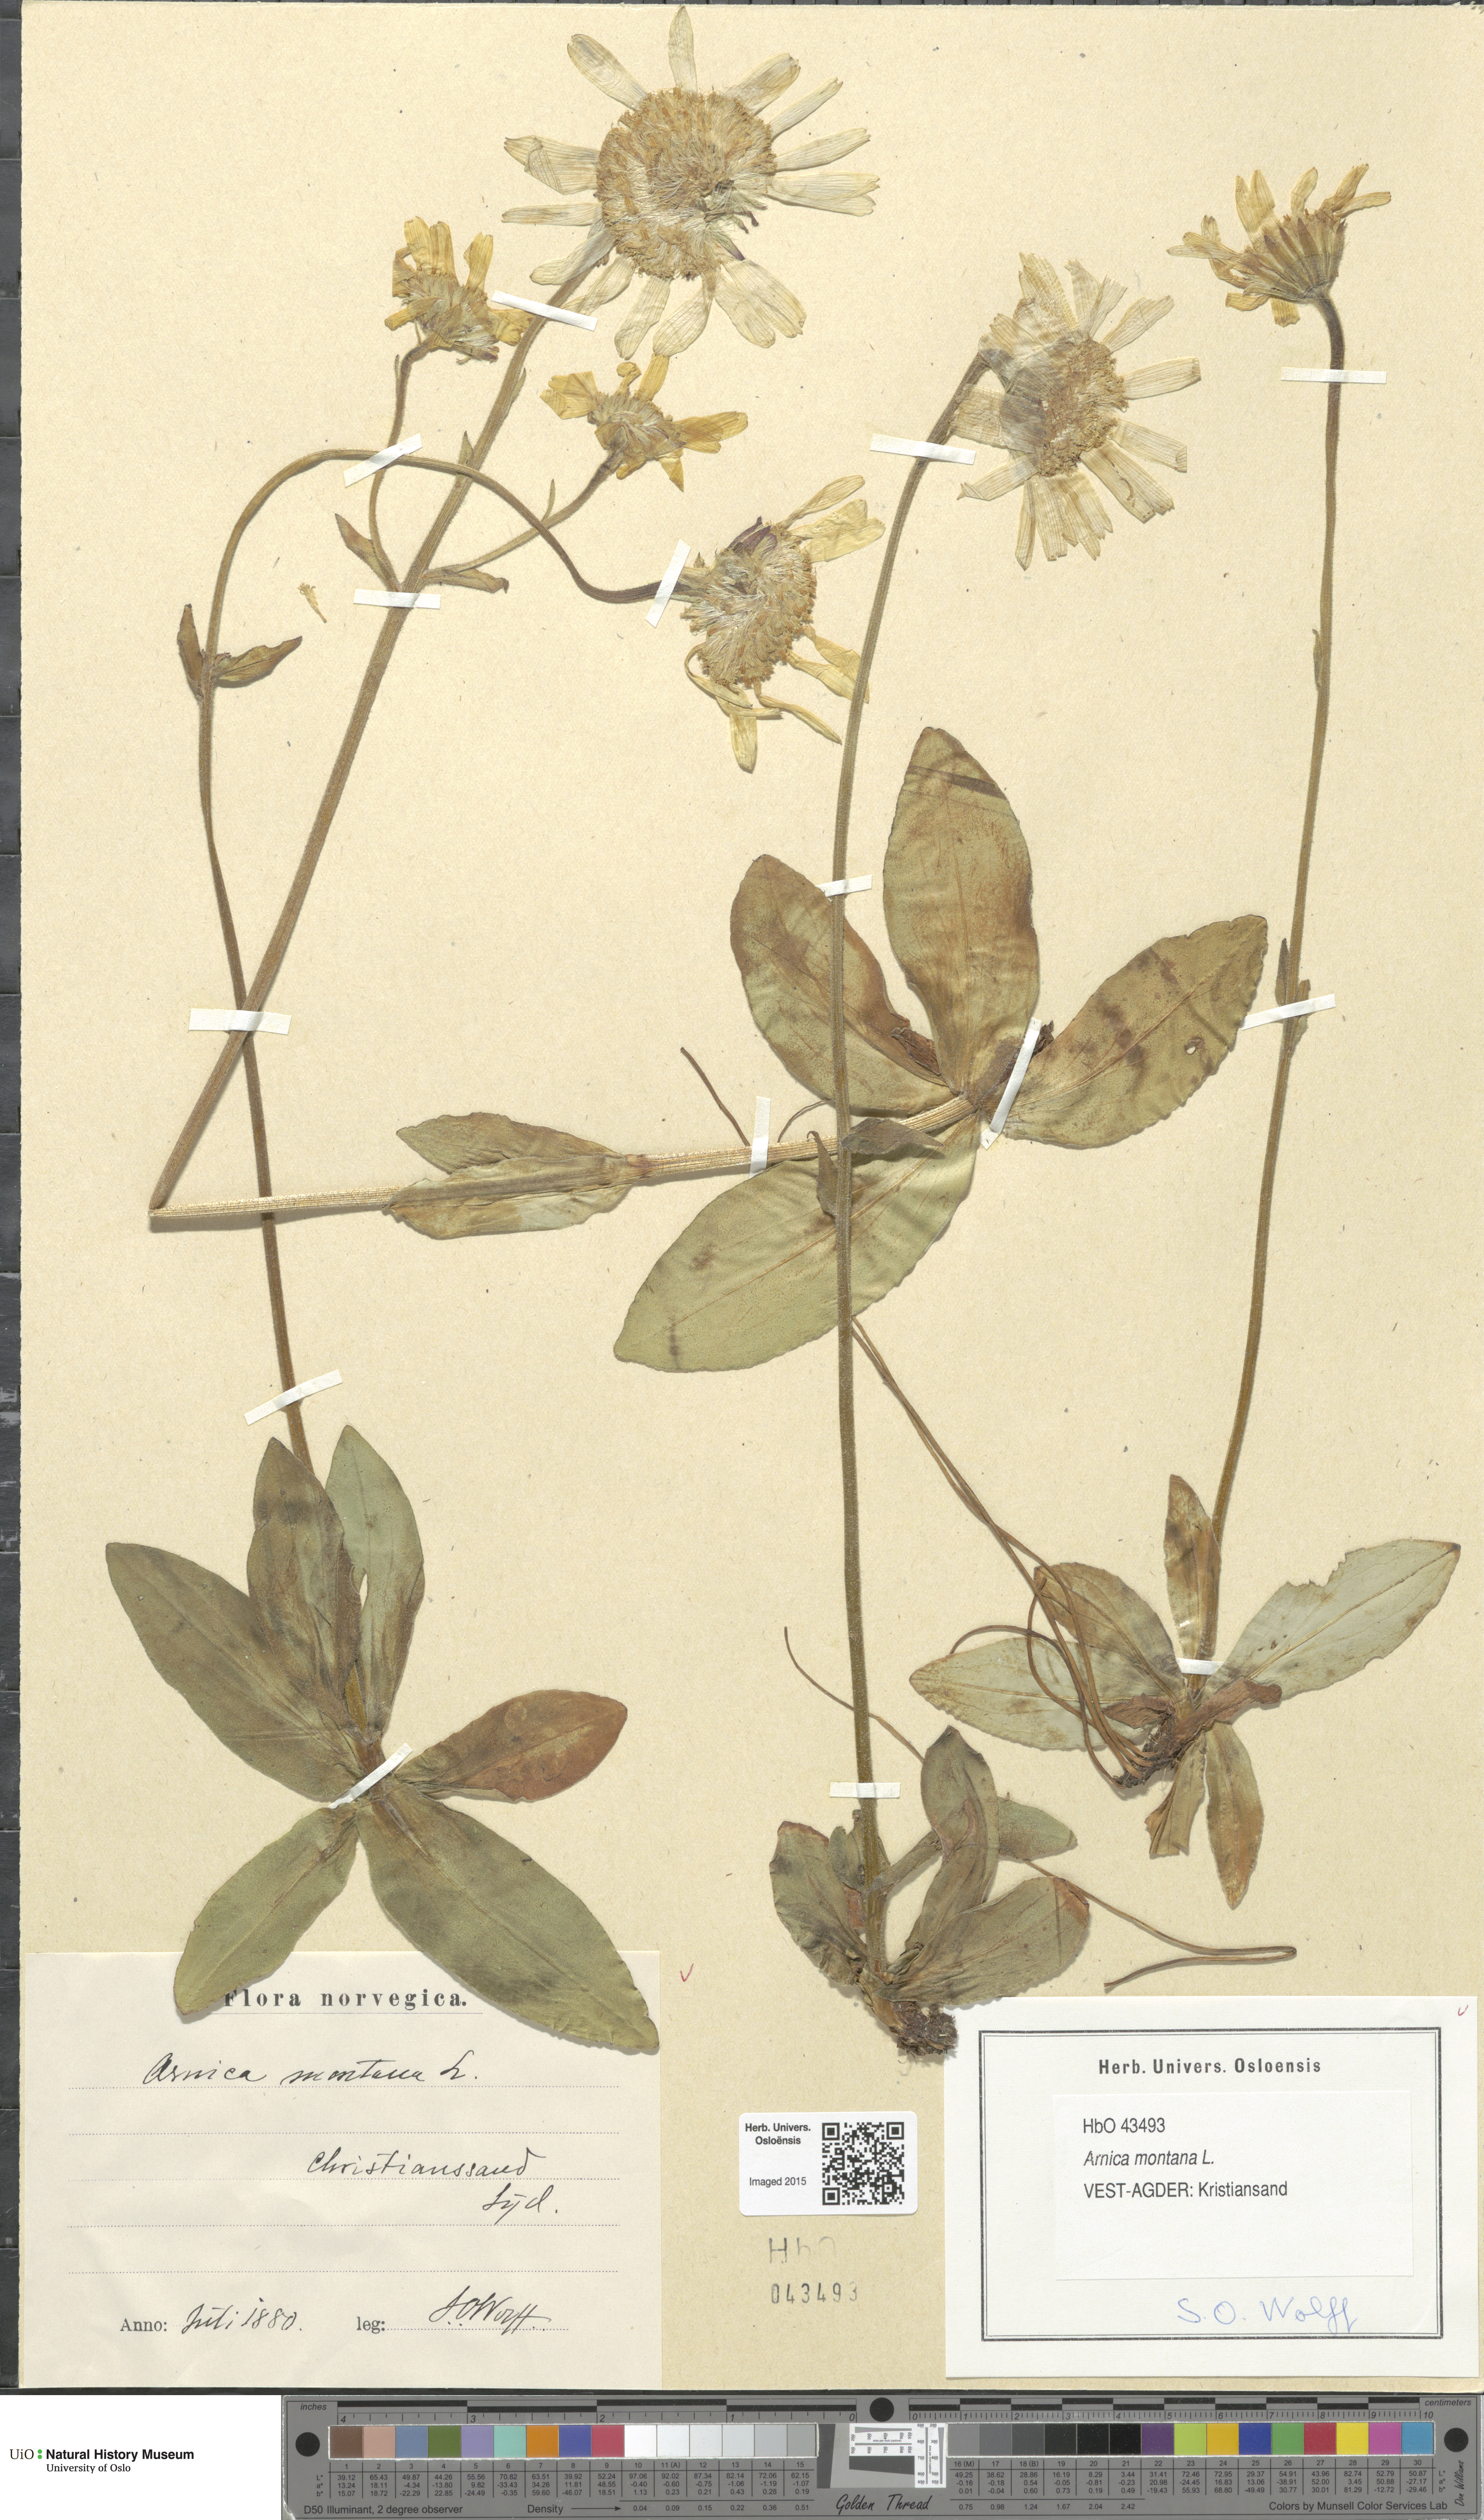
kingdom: Plantae
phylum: Tracheophyta
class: Magnoliopsida
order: Asterales
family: Asteraceae
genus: Arnica
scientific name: Arnica montana
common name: Leopard's bane
